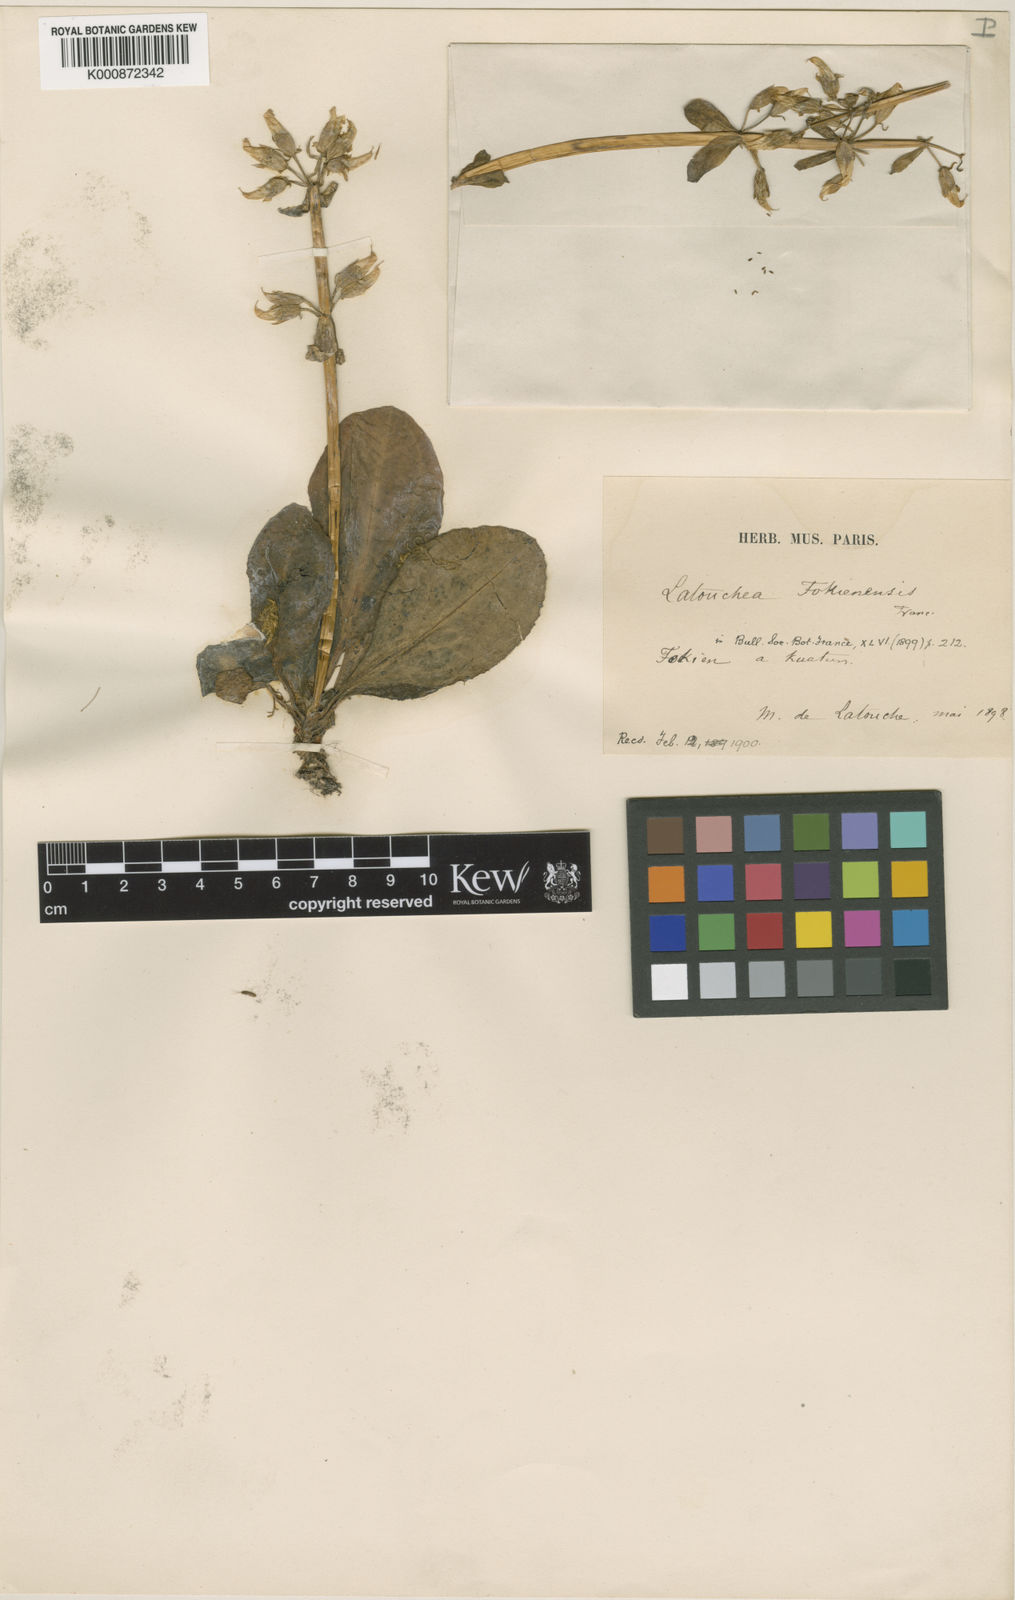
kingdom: Plantae
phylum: Tracheophyta
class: Magnoliopsida
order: Gentianales
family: Gentianaceae
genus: Latouchea
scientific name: Latouchea fokienensis
